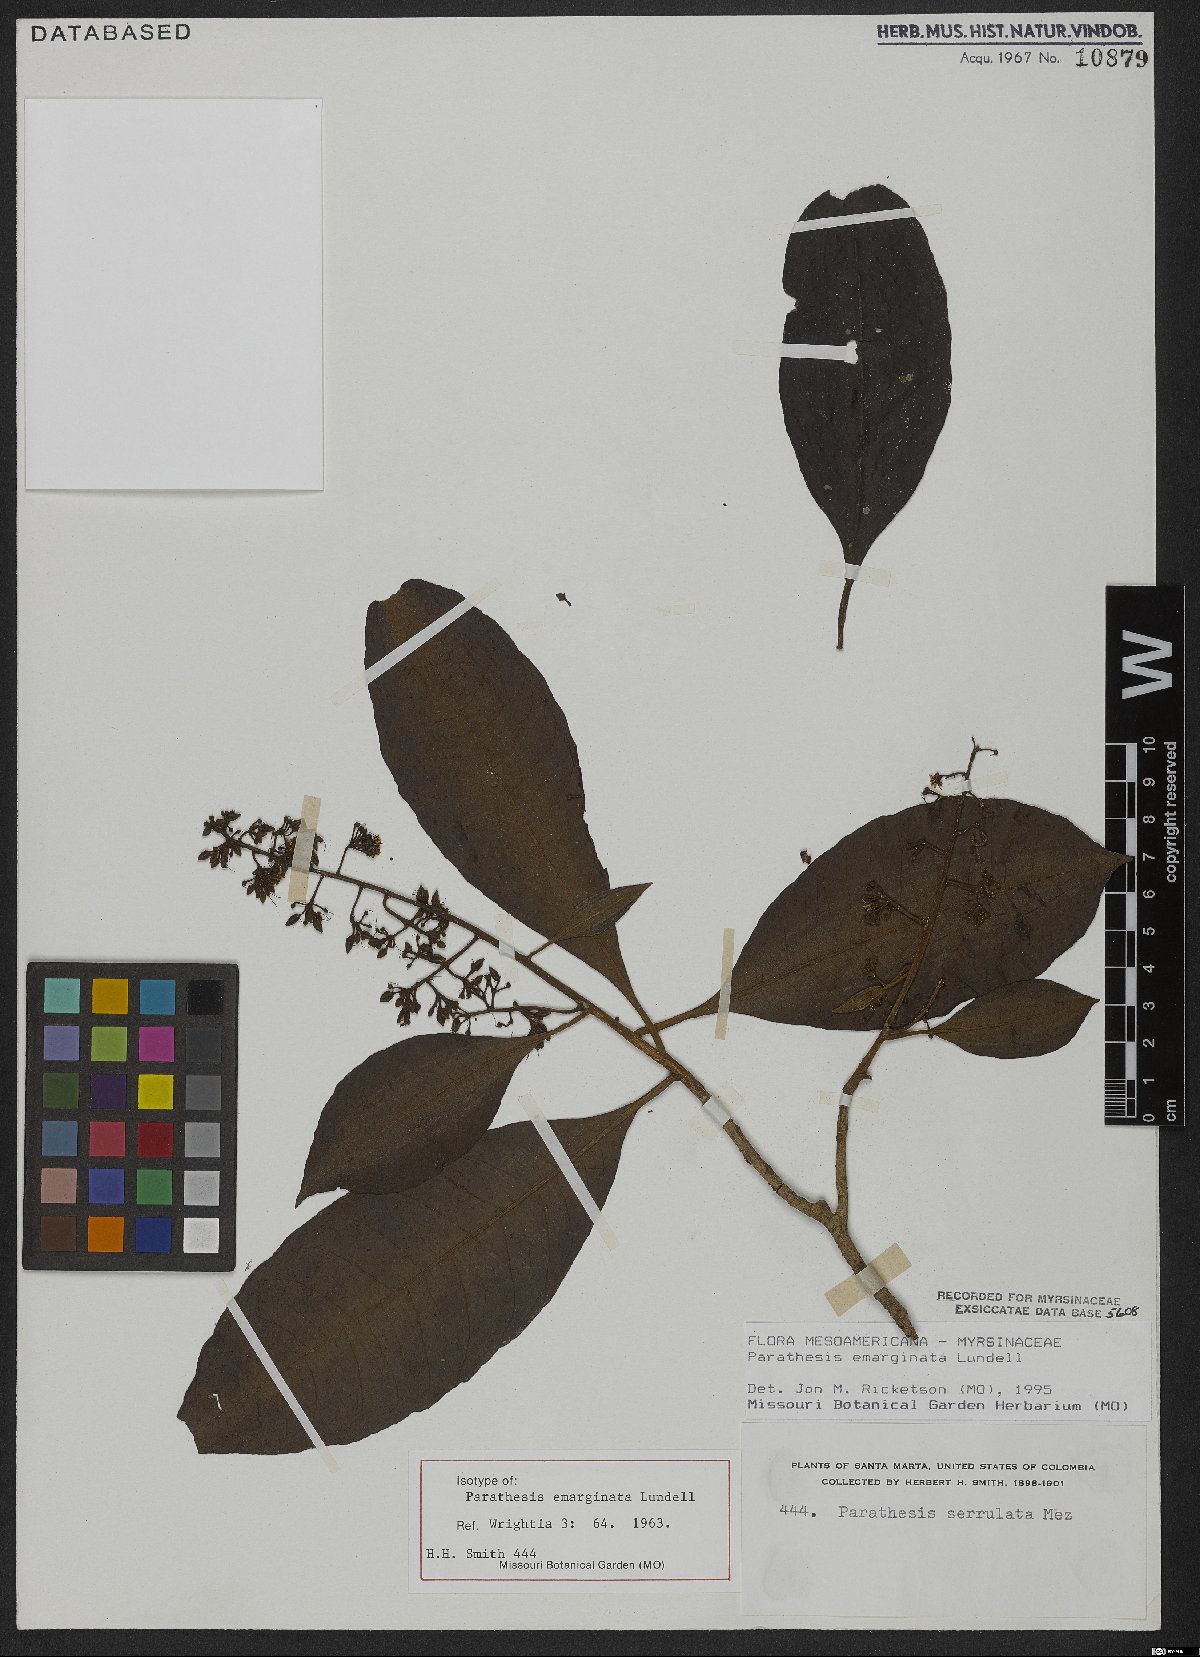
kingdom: Plantae
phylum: Tracheophyta
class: Magnoliopsida
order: Ericales
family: Primulaceae
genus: Parathesis
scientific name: Parathesis emarginata
